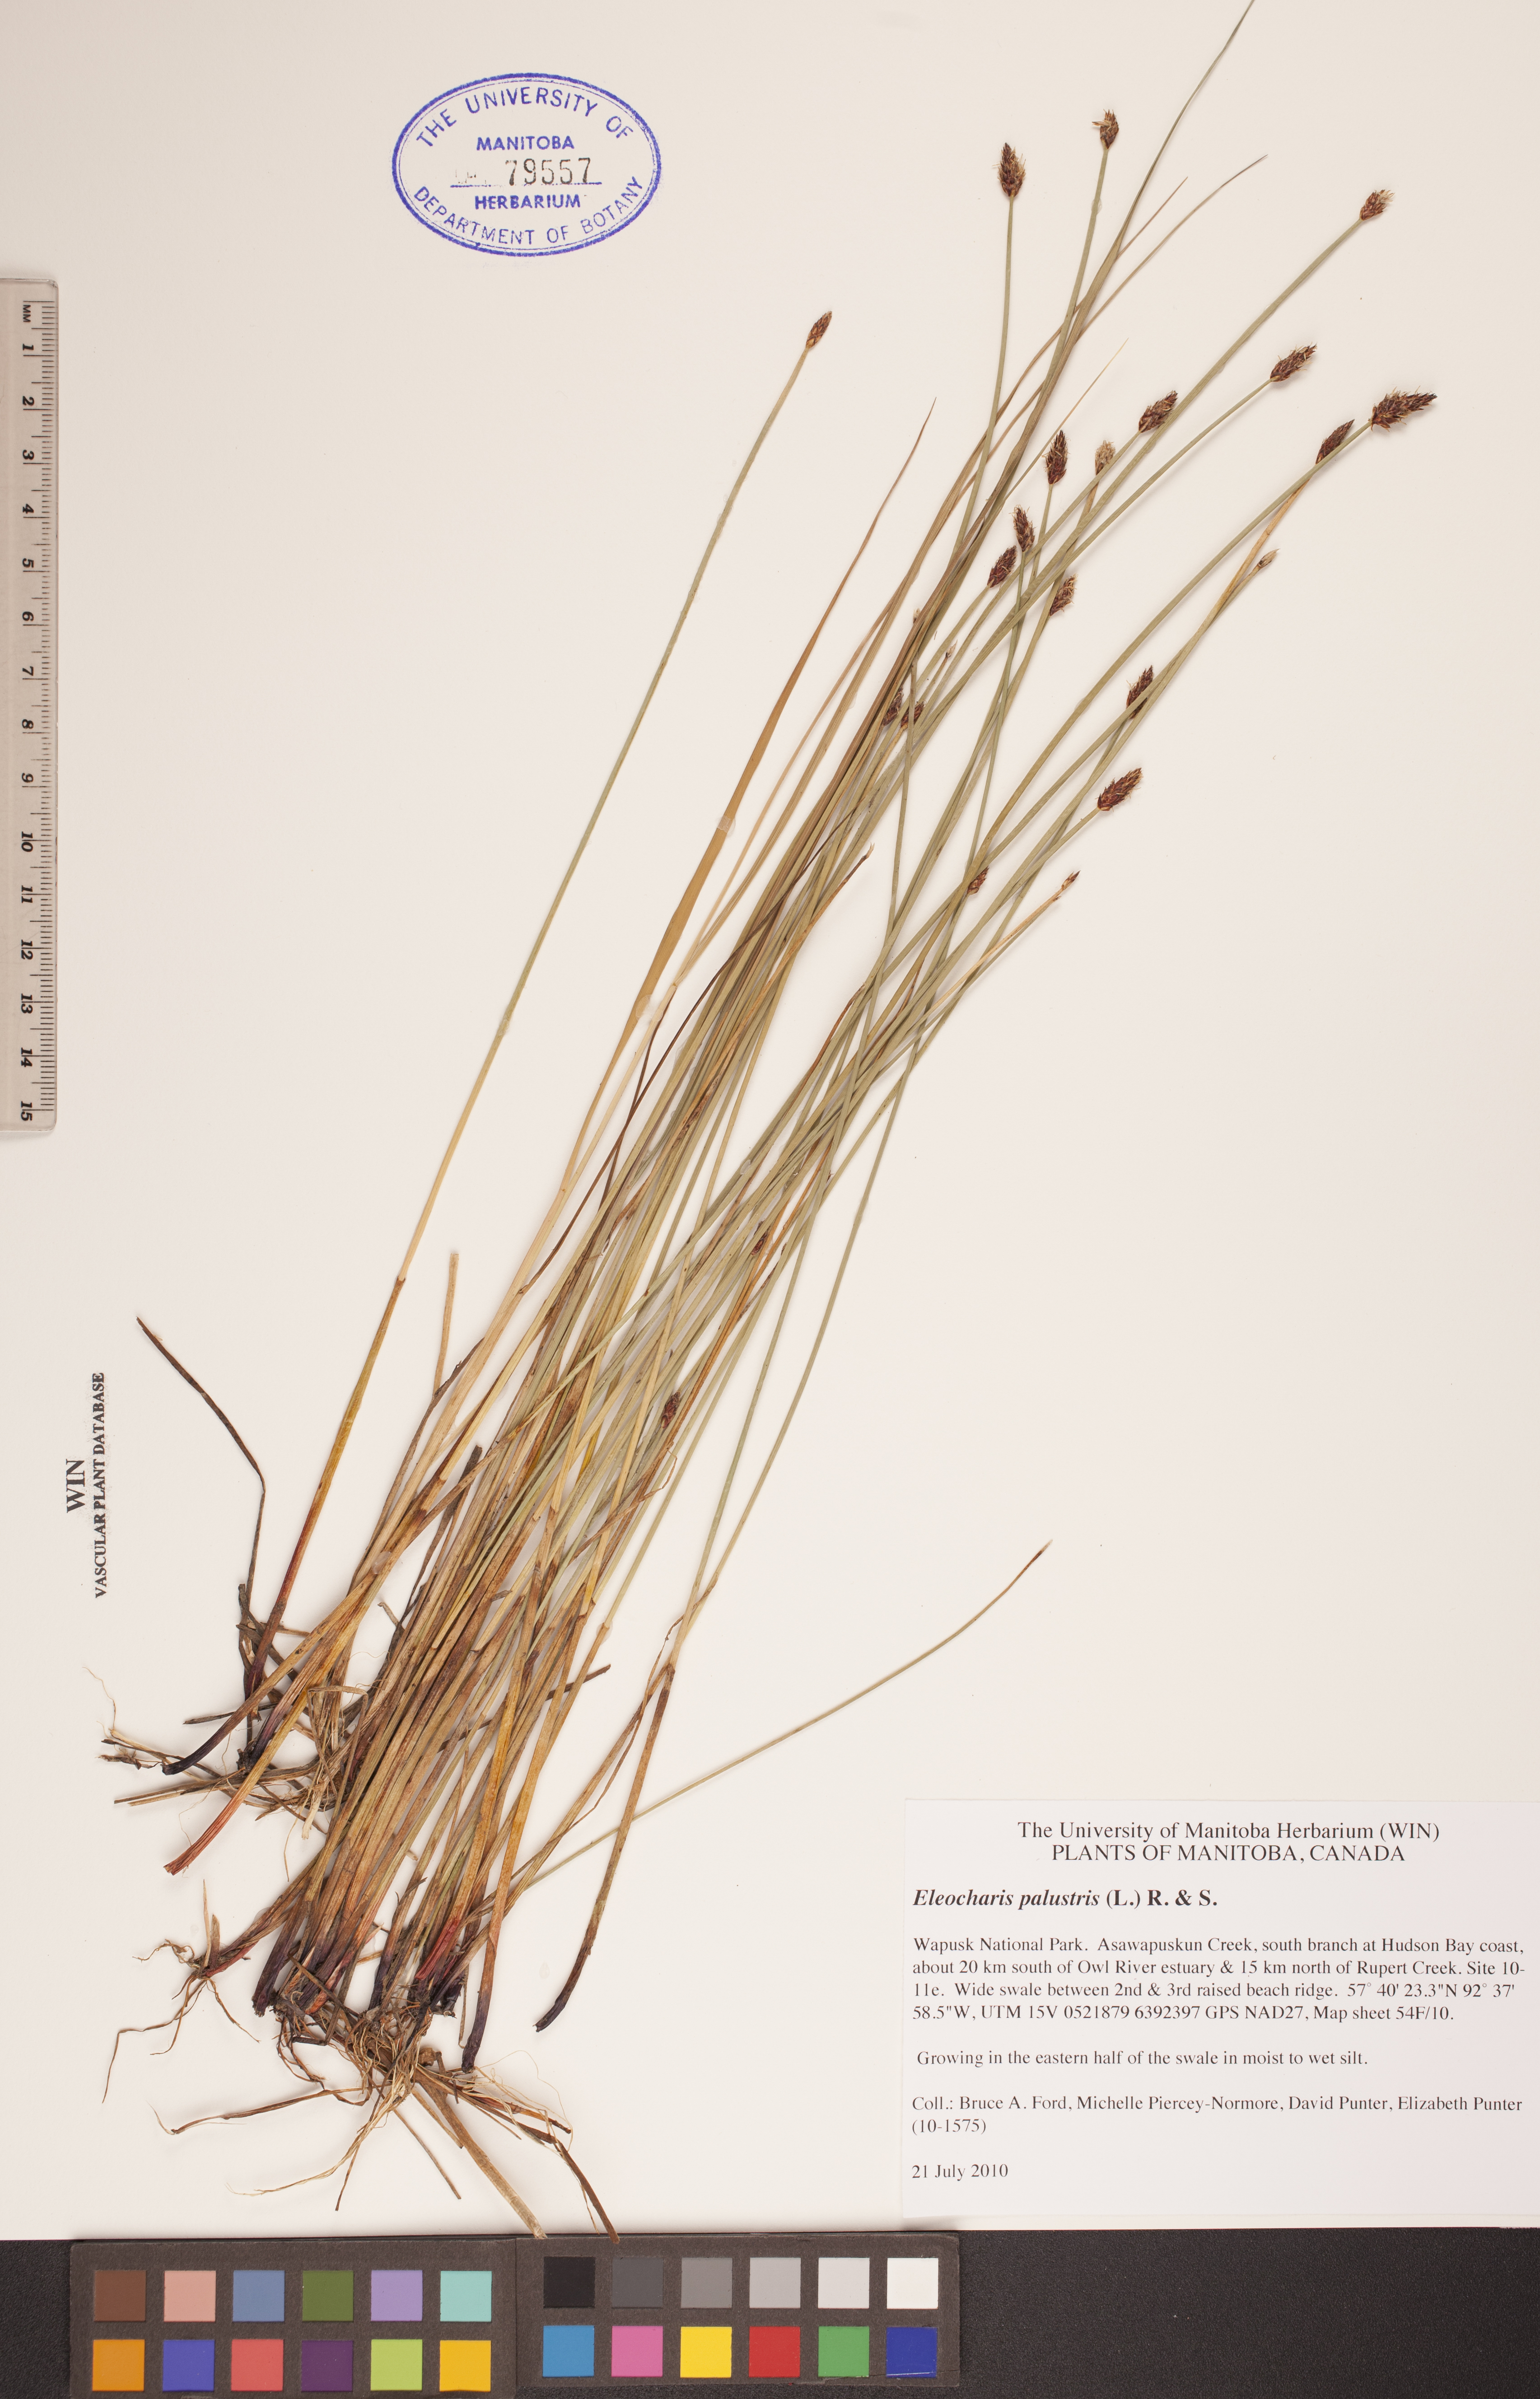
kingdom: Plantae
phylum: Tracheophyta
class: Liliopsida
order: Poales
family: Cyperaceae
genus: Eleocharis
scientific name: Eleocharis palustris
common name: Common spike-rush
